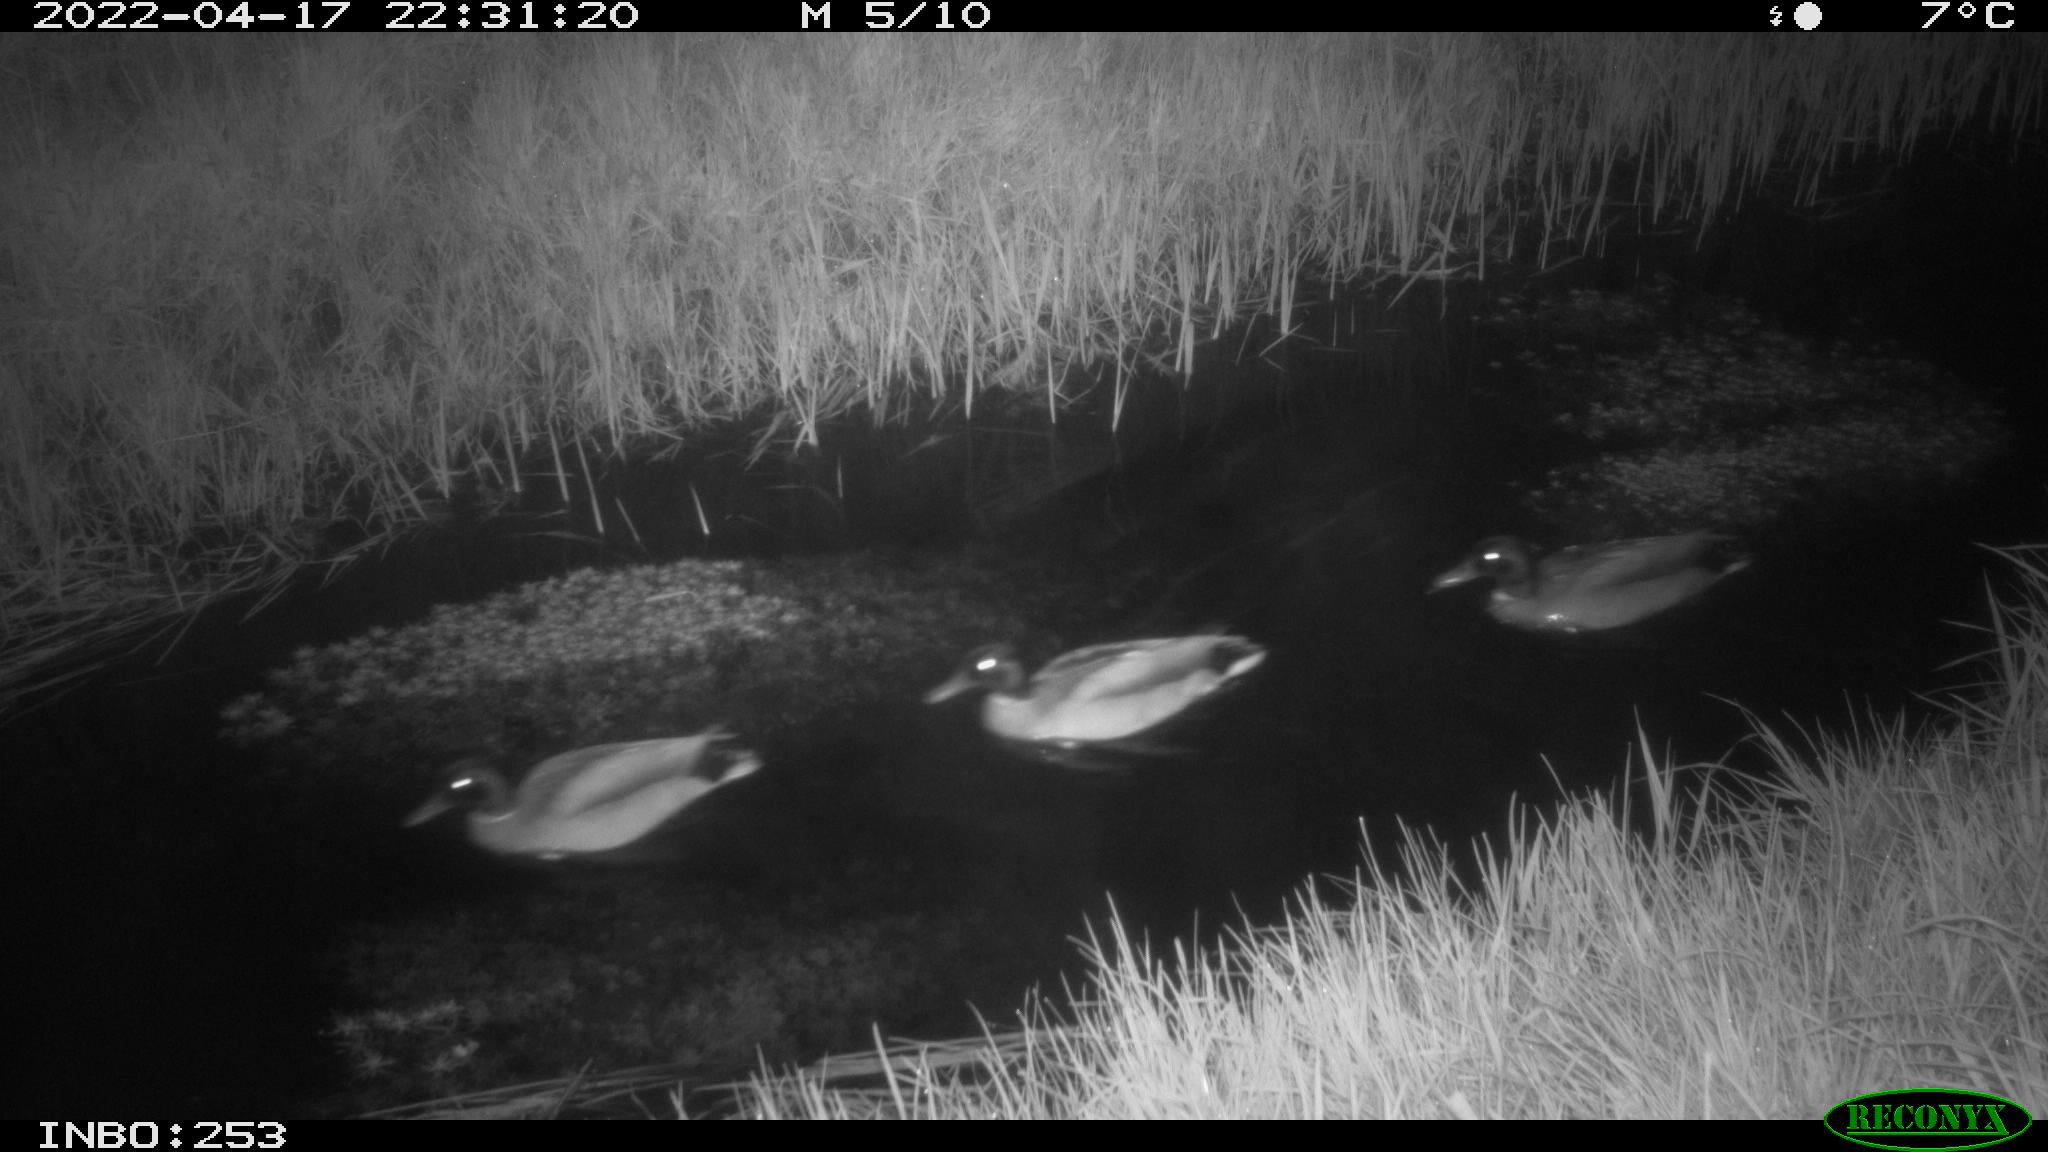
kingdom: Animalia
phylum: Chordata
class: Aves
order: Anseriformes
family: Anatidae
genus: Anas
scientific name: Anas platyrhynchos
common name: Mallard
